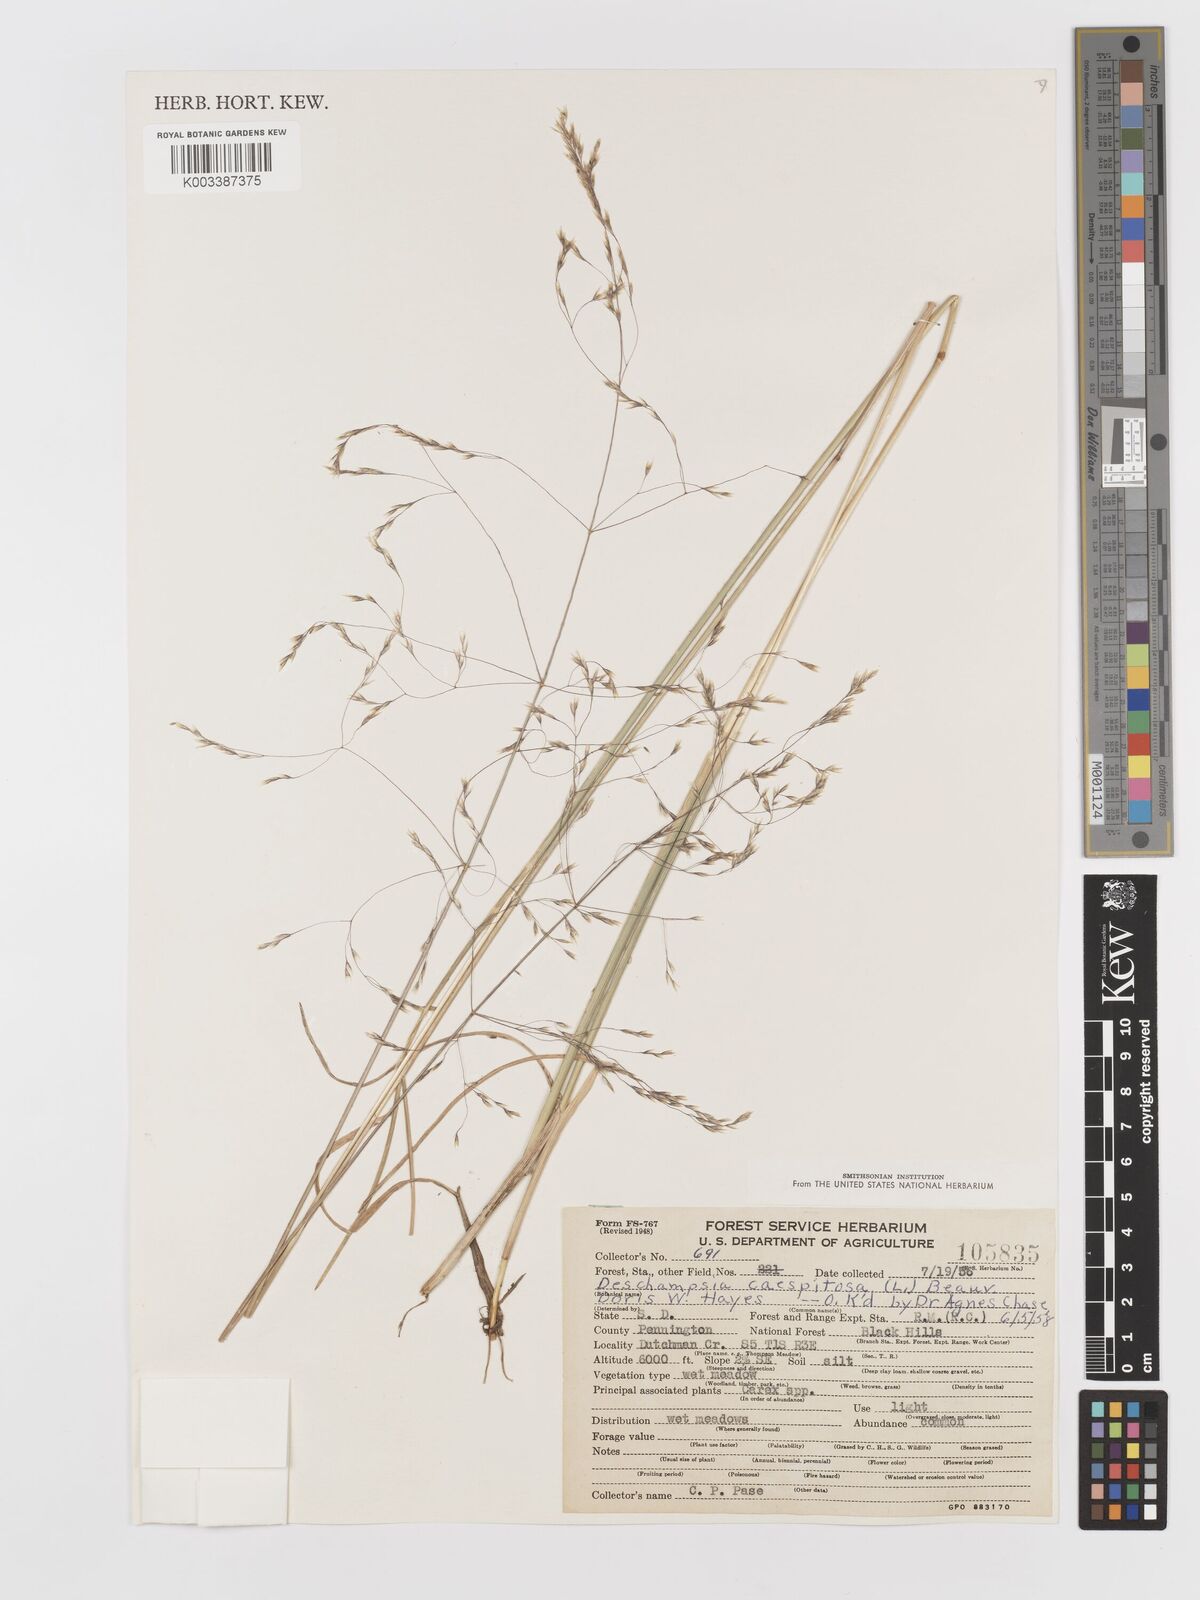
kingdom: Plantae
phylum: Tracheophyta
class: Liliopsida
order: Poales
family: Poaceae
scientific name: Poaceae
